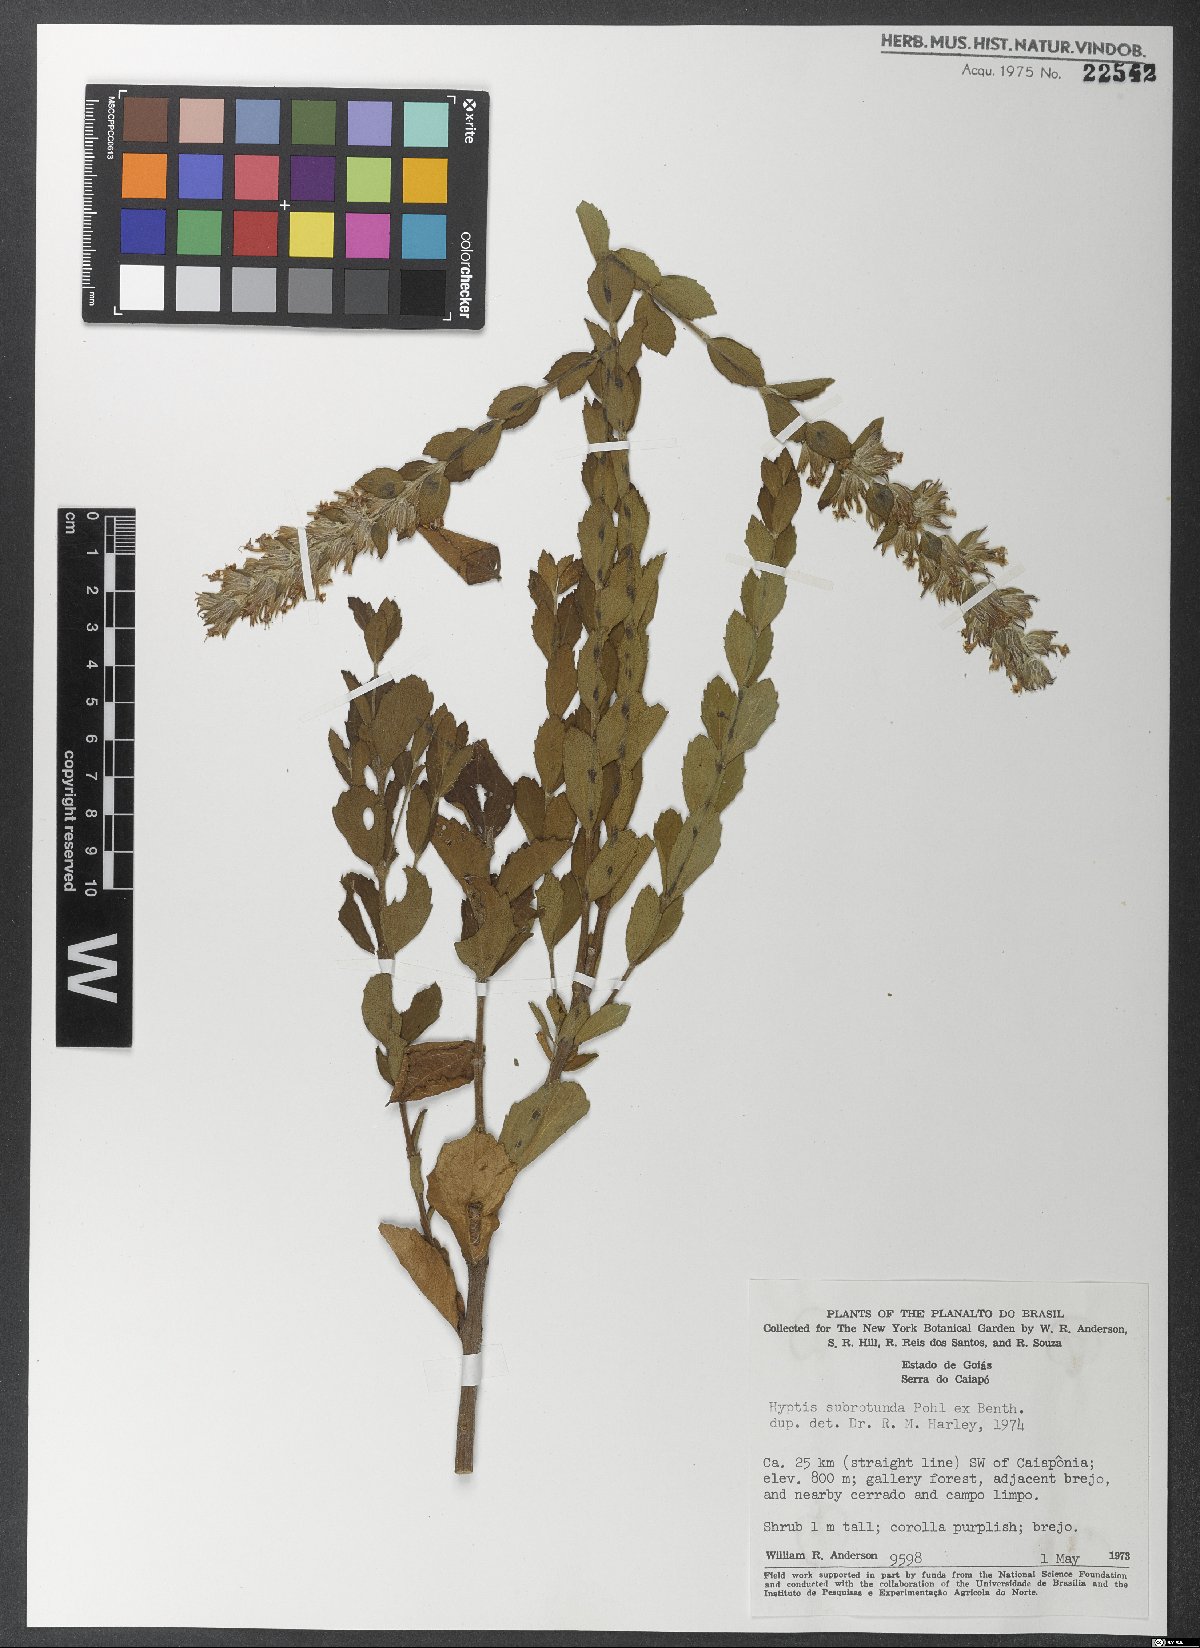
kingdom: Plantae
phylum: Tracheophyta
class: Magnoliopsida
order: Lamiales
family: Lamiaceae
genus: Cantinoa
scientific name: Cantinoa subrotunda
